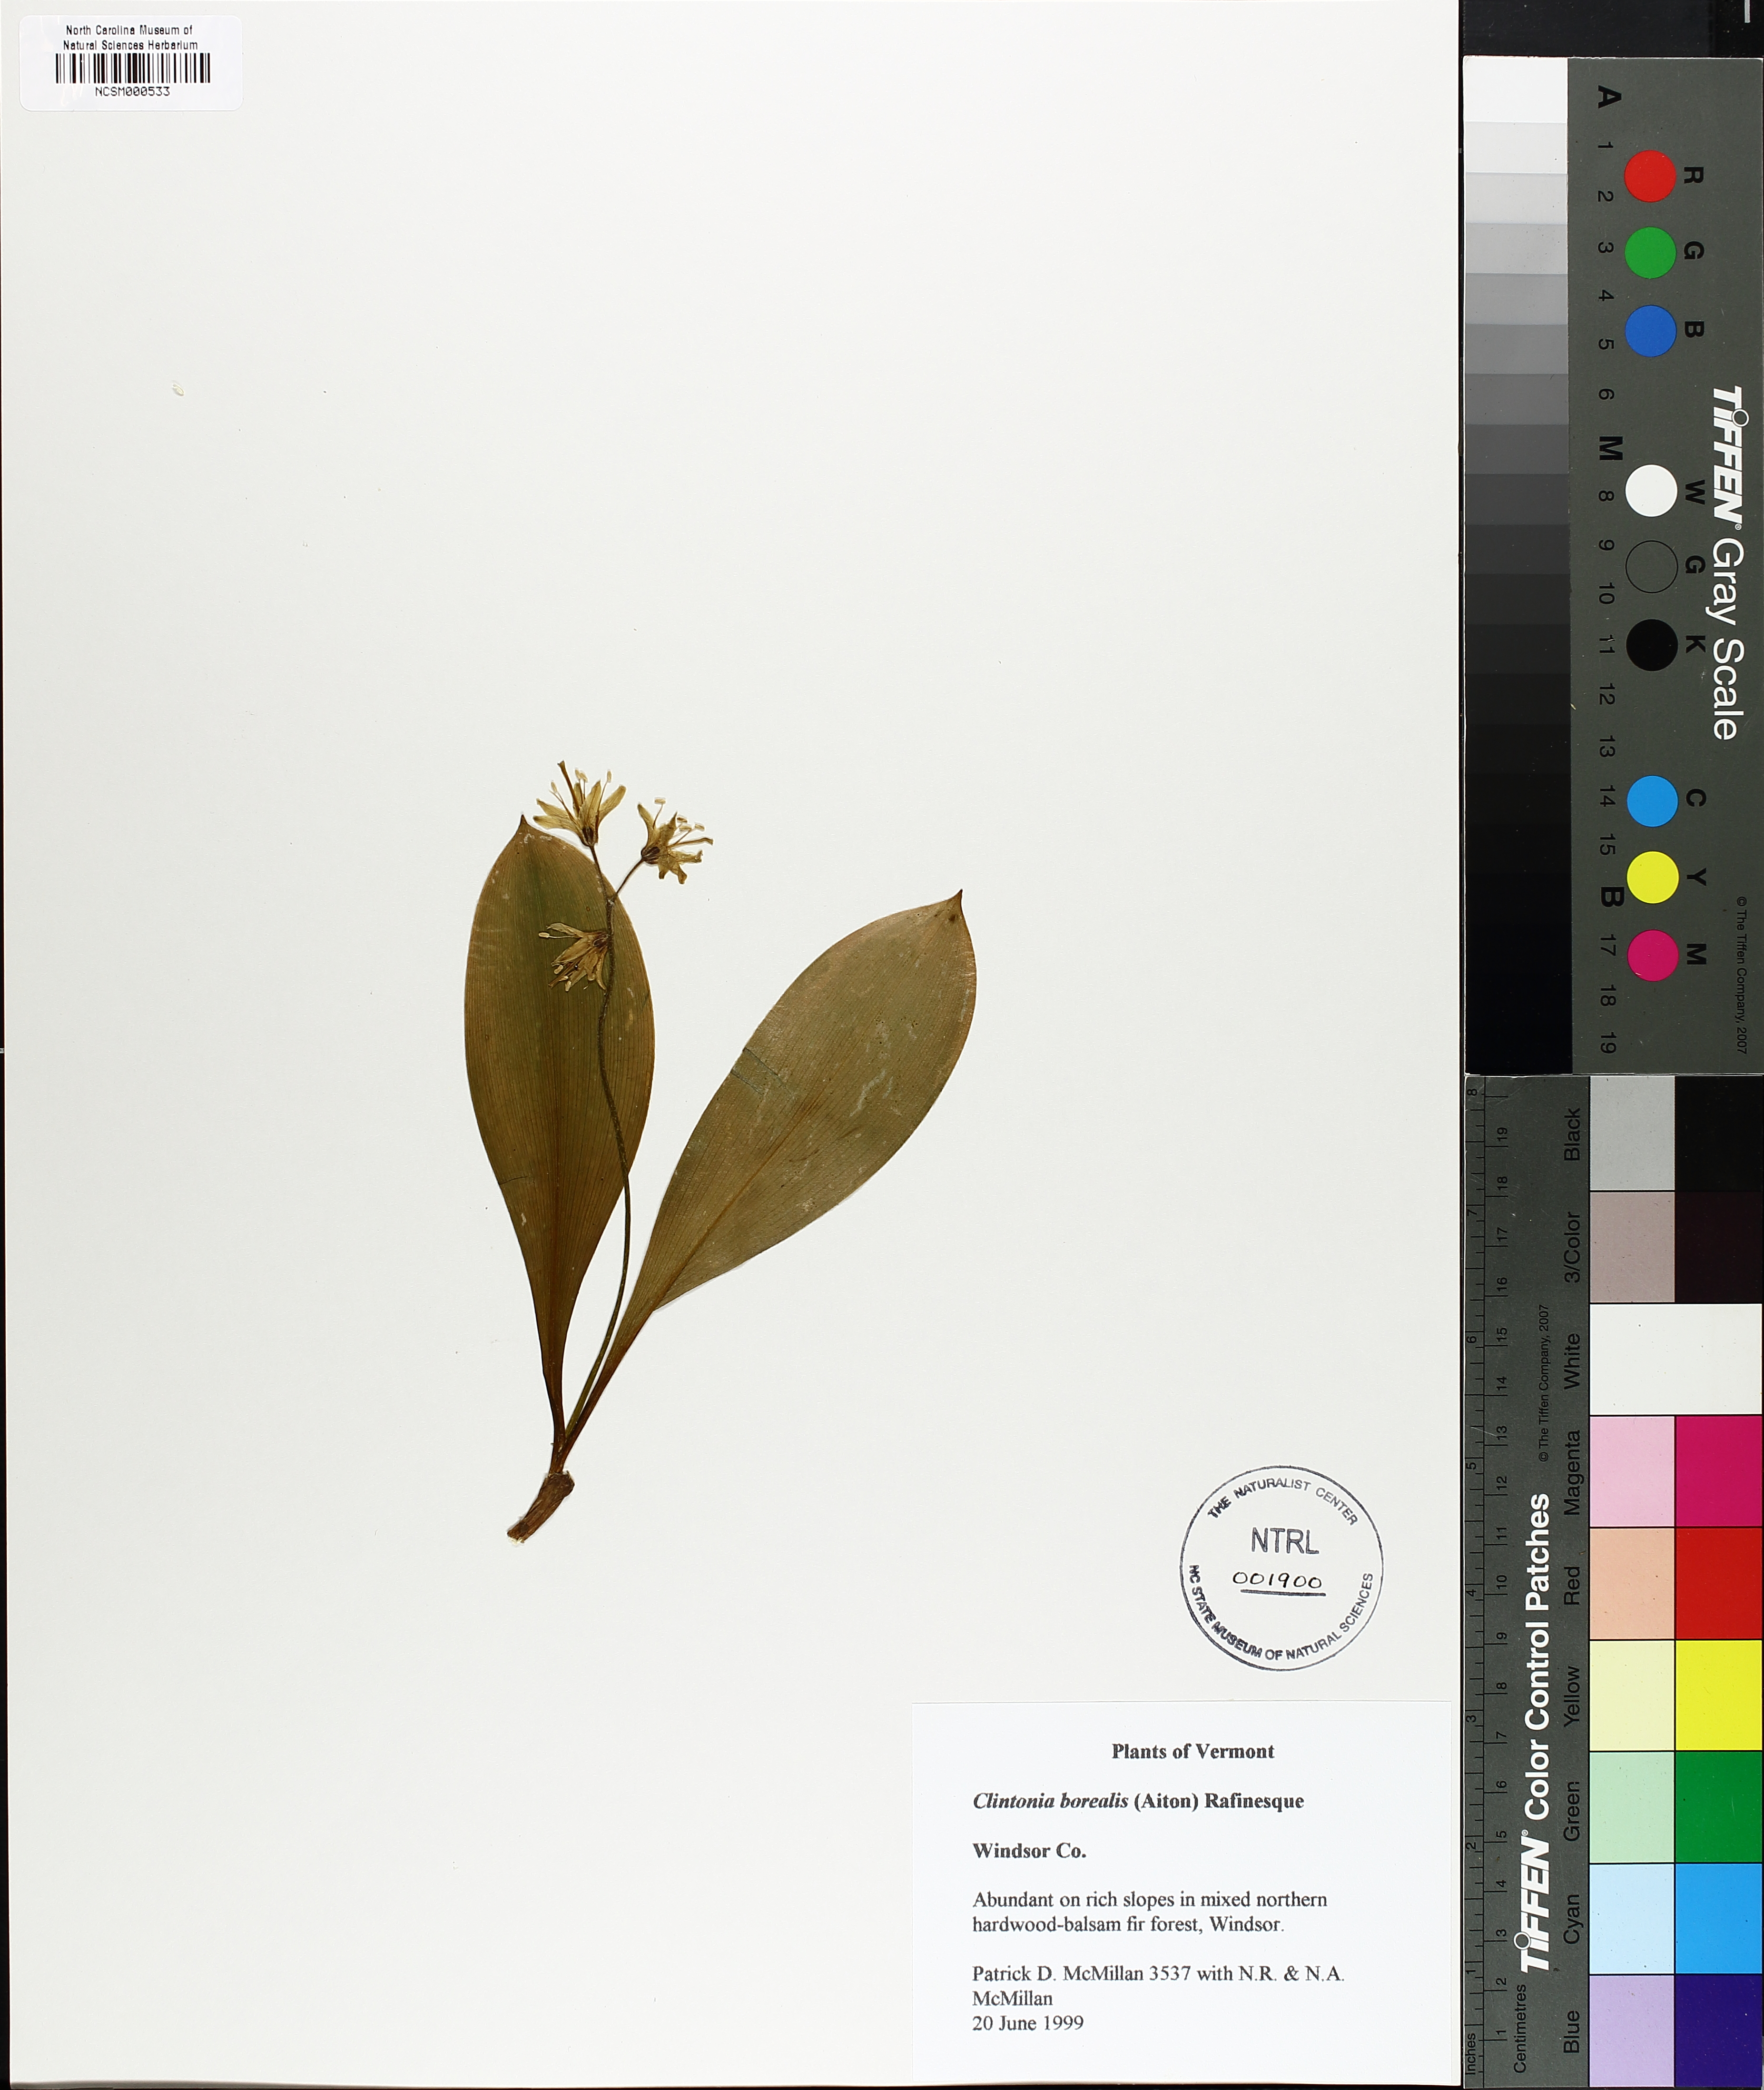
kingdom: Plantae
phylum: Tracheophyta
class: Liliopsida
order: Liliales
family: Liliaceae
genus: Clintonia
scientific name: Clintonia borealis
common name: Yellow clintonia
